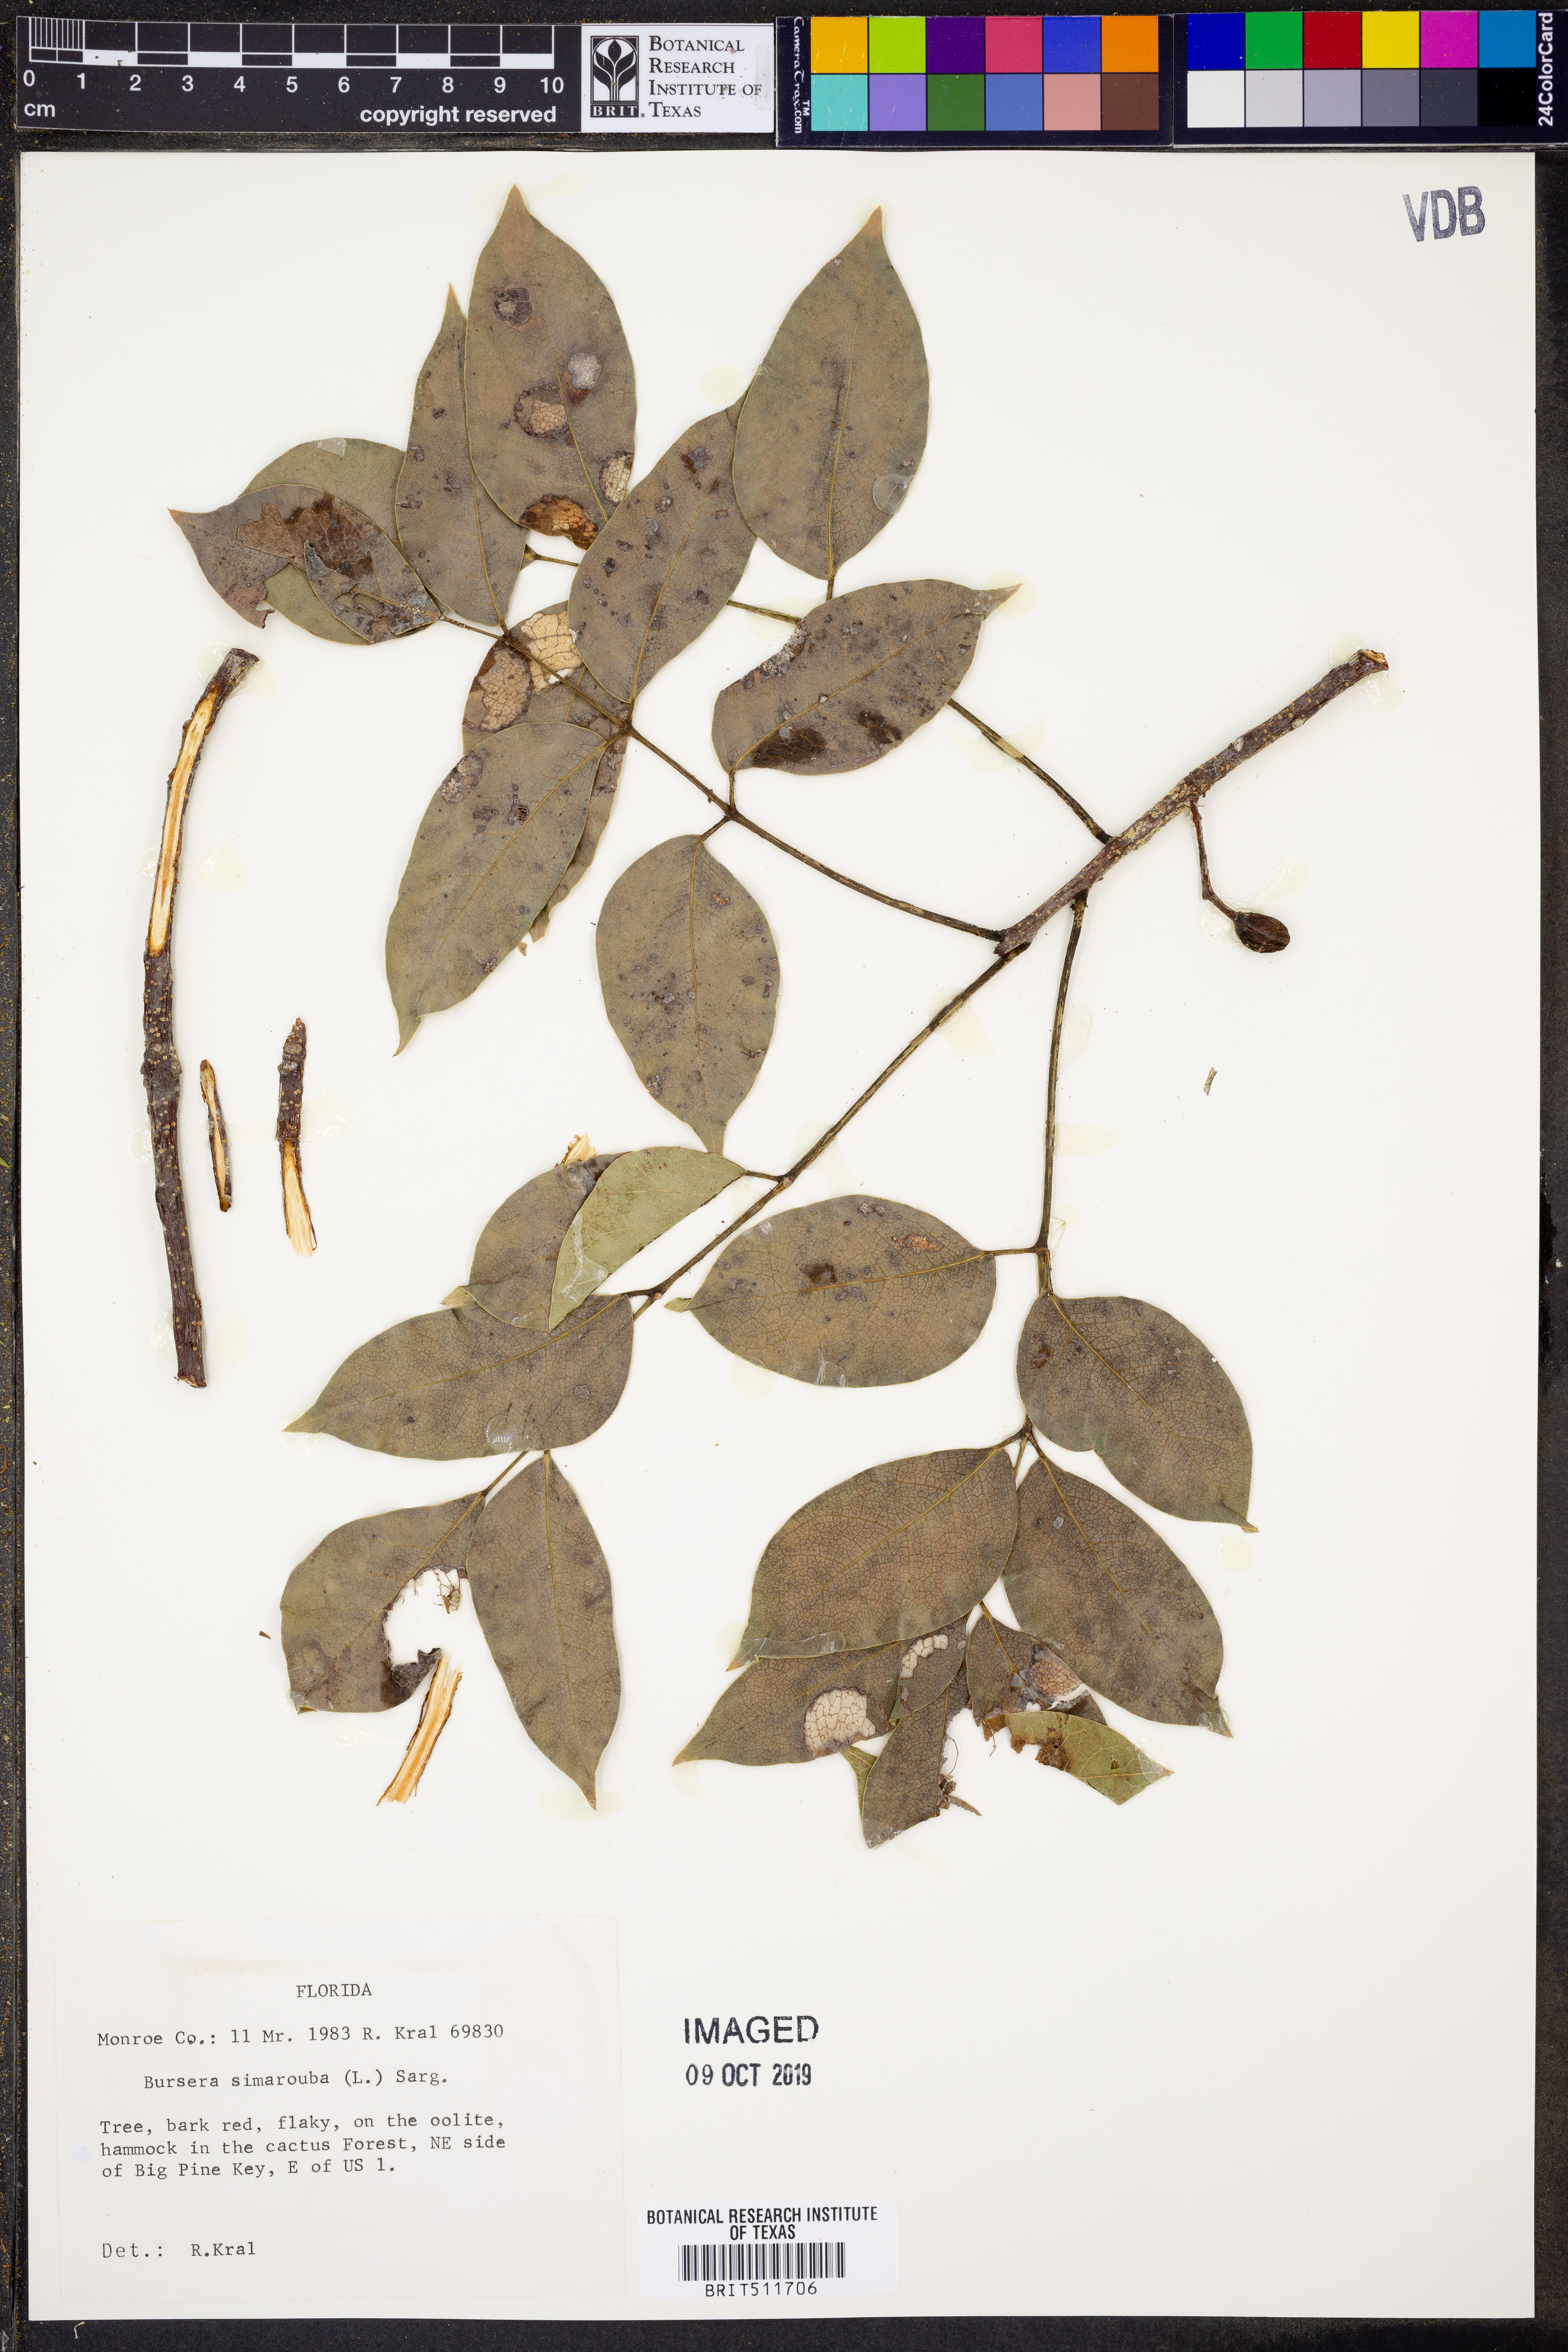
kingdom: Plantae
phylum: Tracheophyta
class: Magnoliopsida
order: Sapindales
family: Burseraceae
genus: Bursera
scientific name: Bursera simaruba
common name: Turpentine tree
